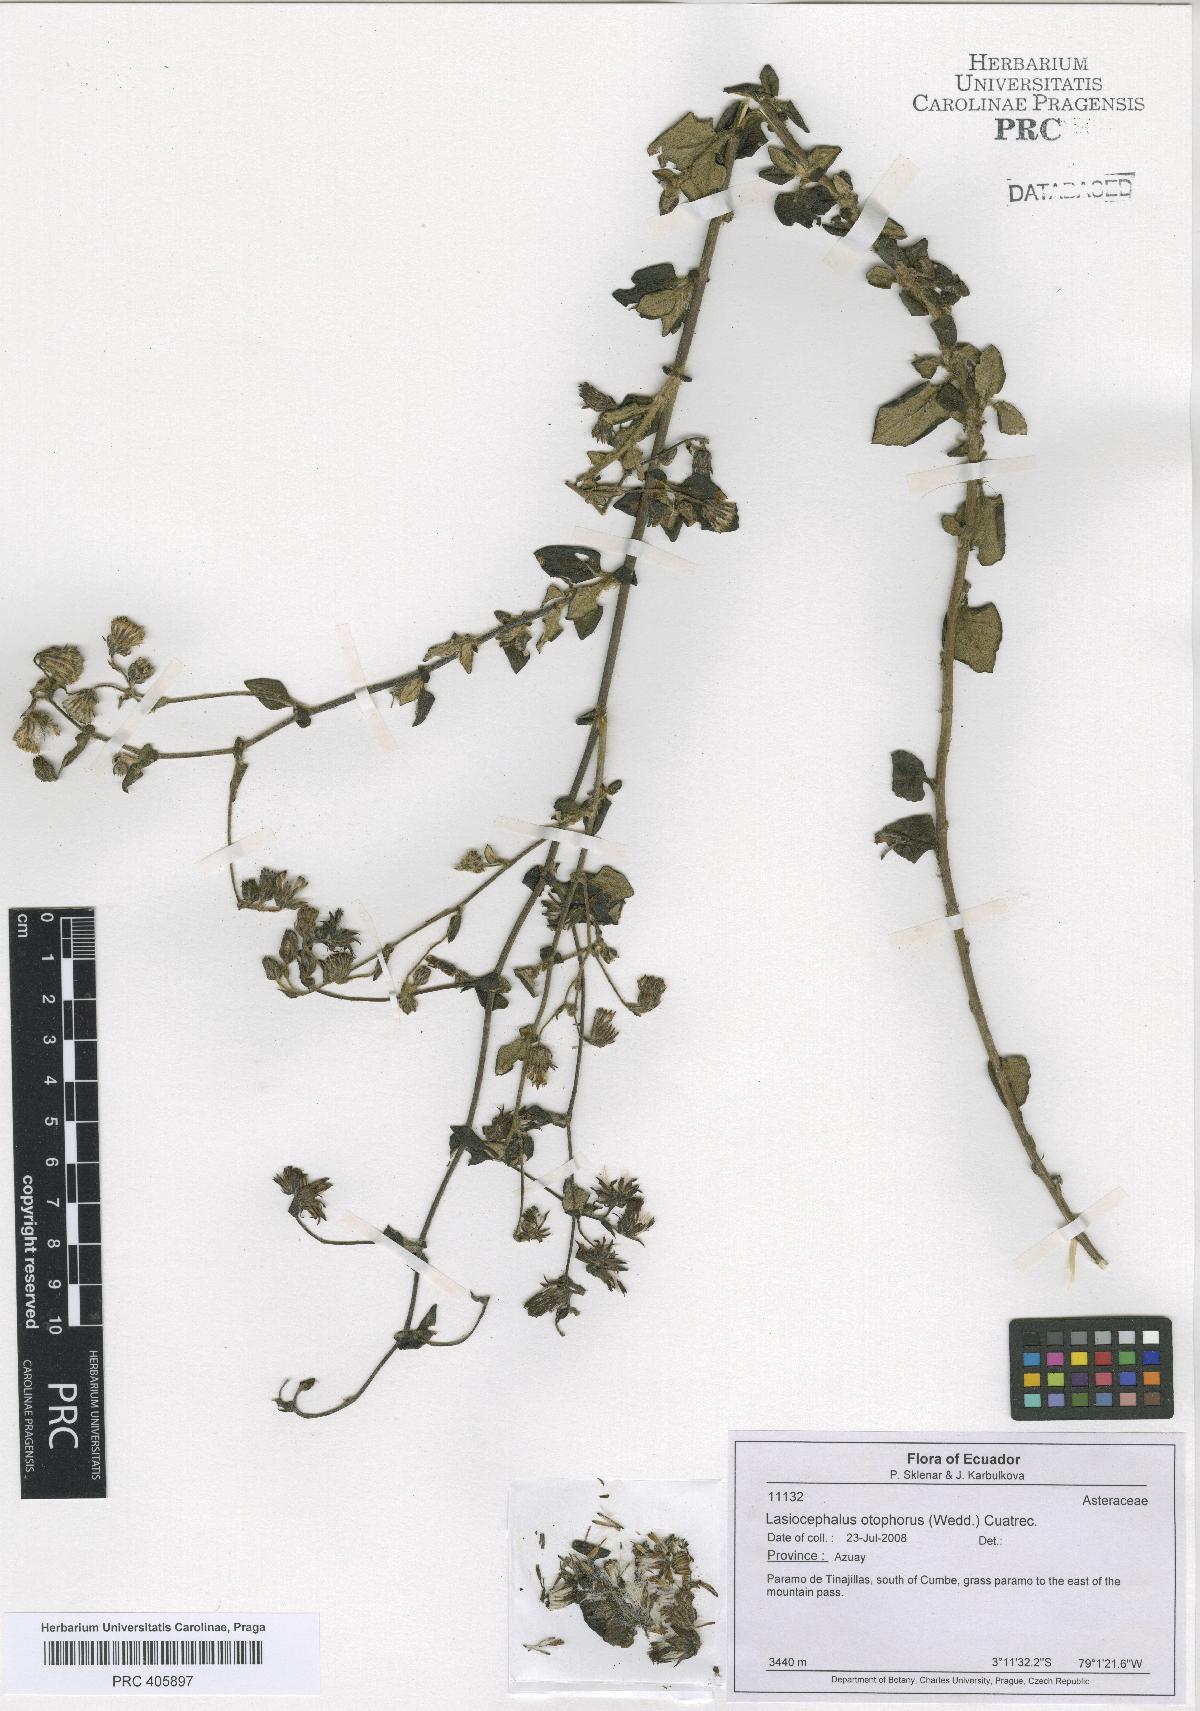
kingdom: Plantae
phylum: Tracheophyta
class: Magnoliopsida
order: Asterales
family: Asteraceae
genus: Aetheolaena
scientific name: Aetheolaena otophora
